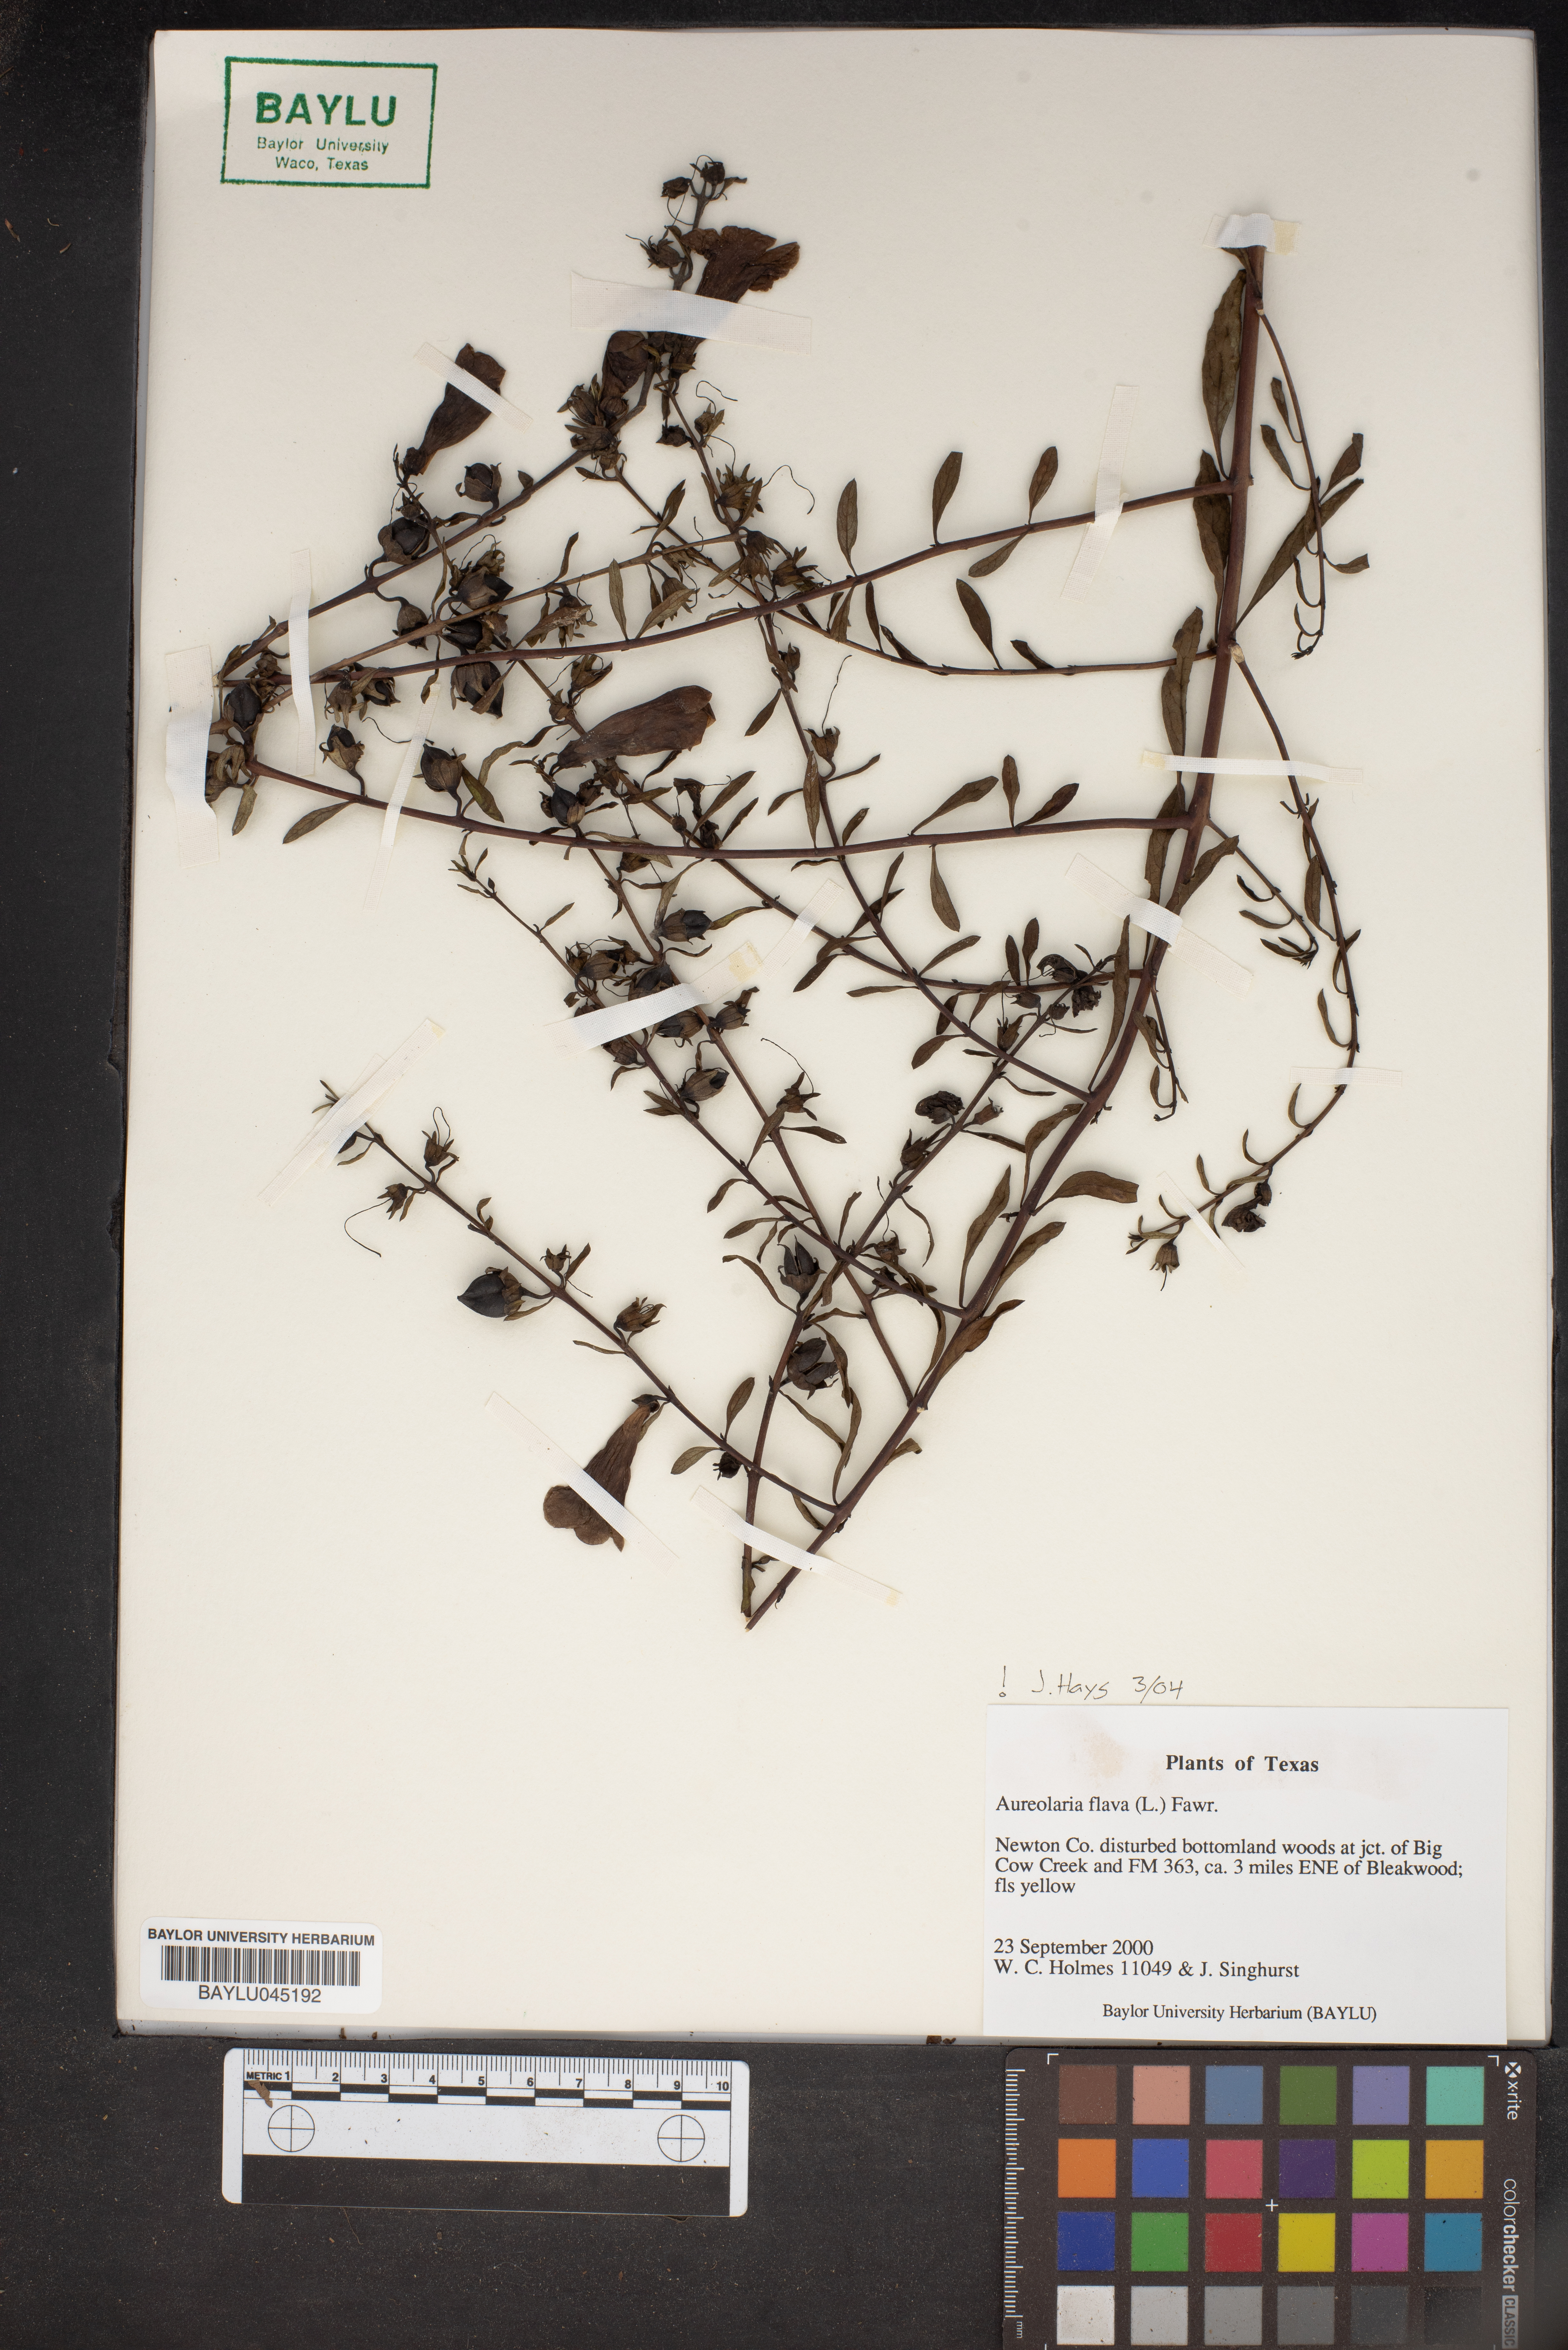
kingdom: Plantae
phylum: Tracheophyta
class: Magnoliopsida
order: Lamiales
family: Orobanchaceae
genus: Aureolaria
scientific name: Aureolaria flava
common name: Smooth false foxglove
